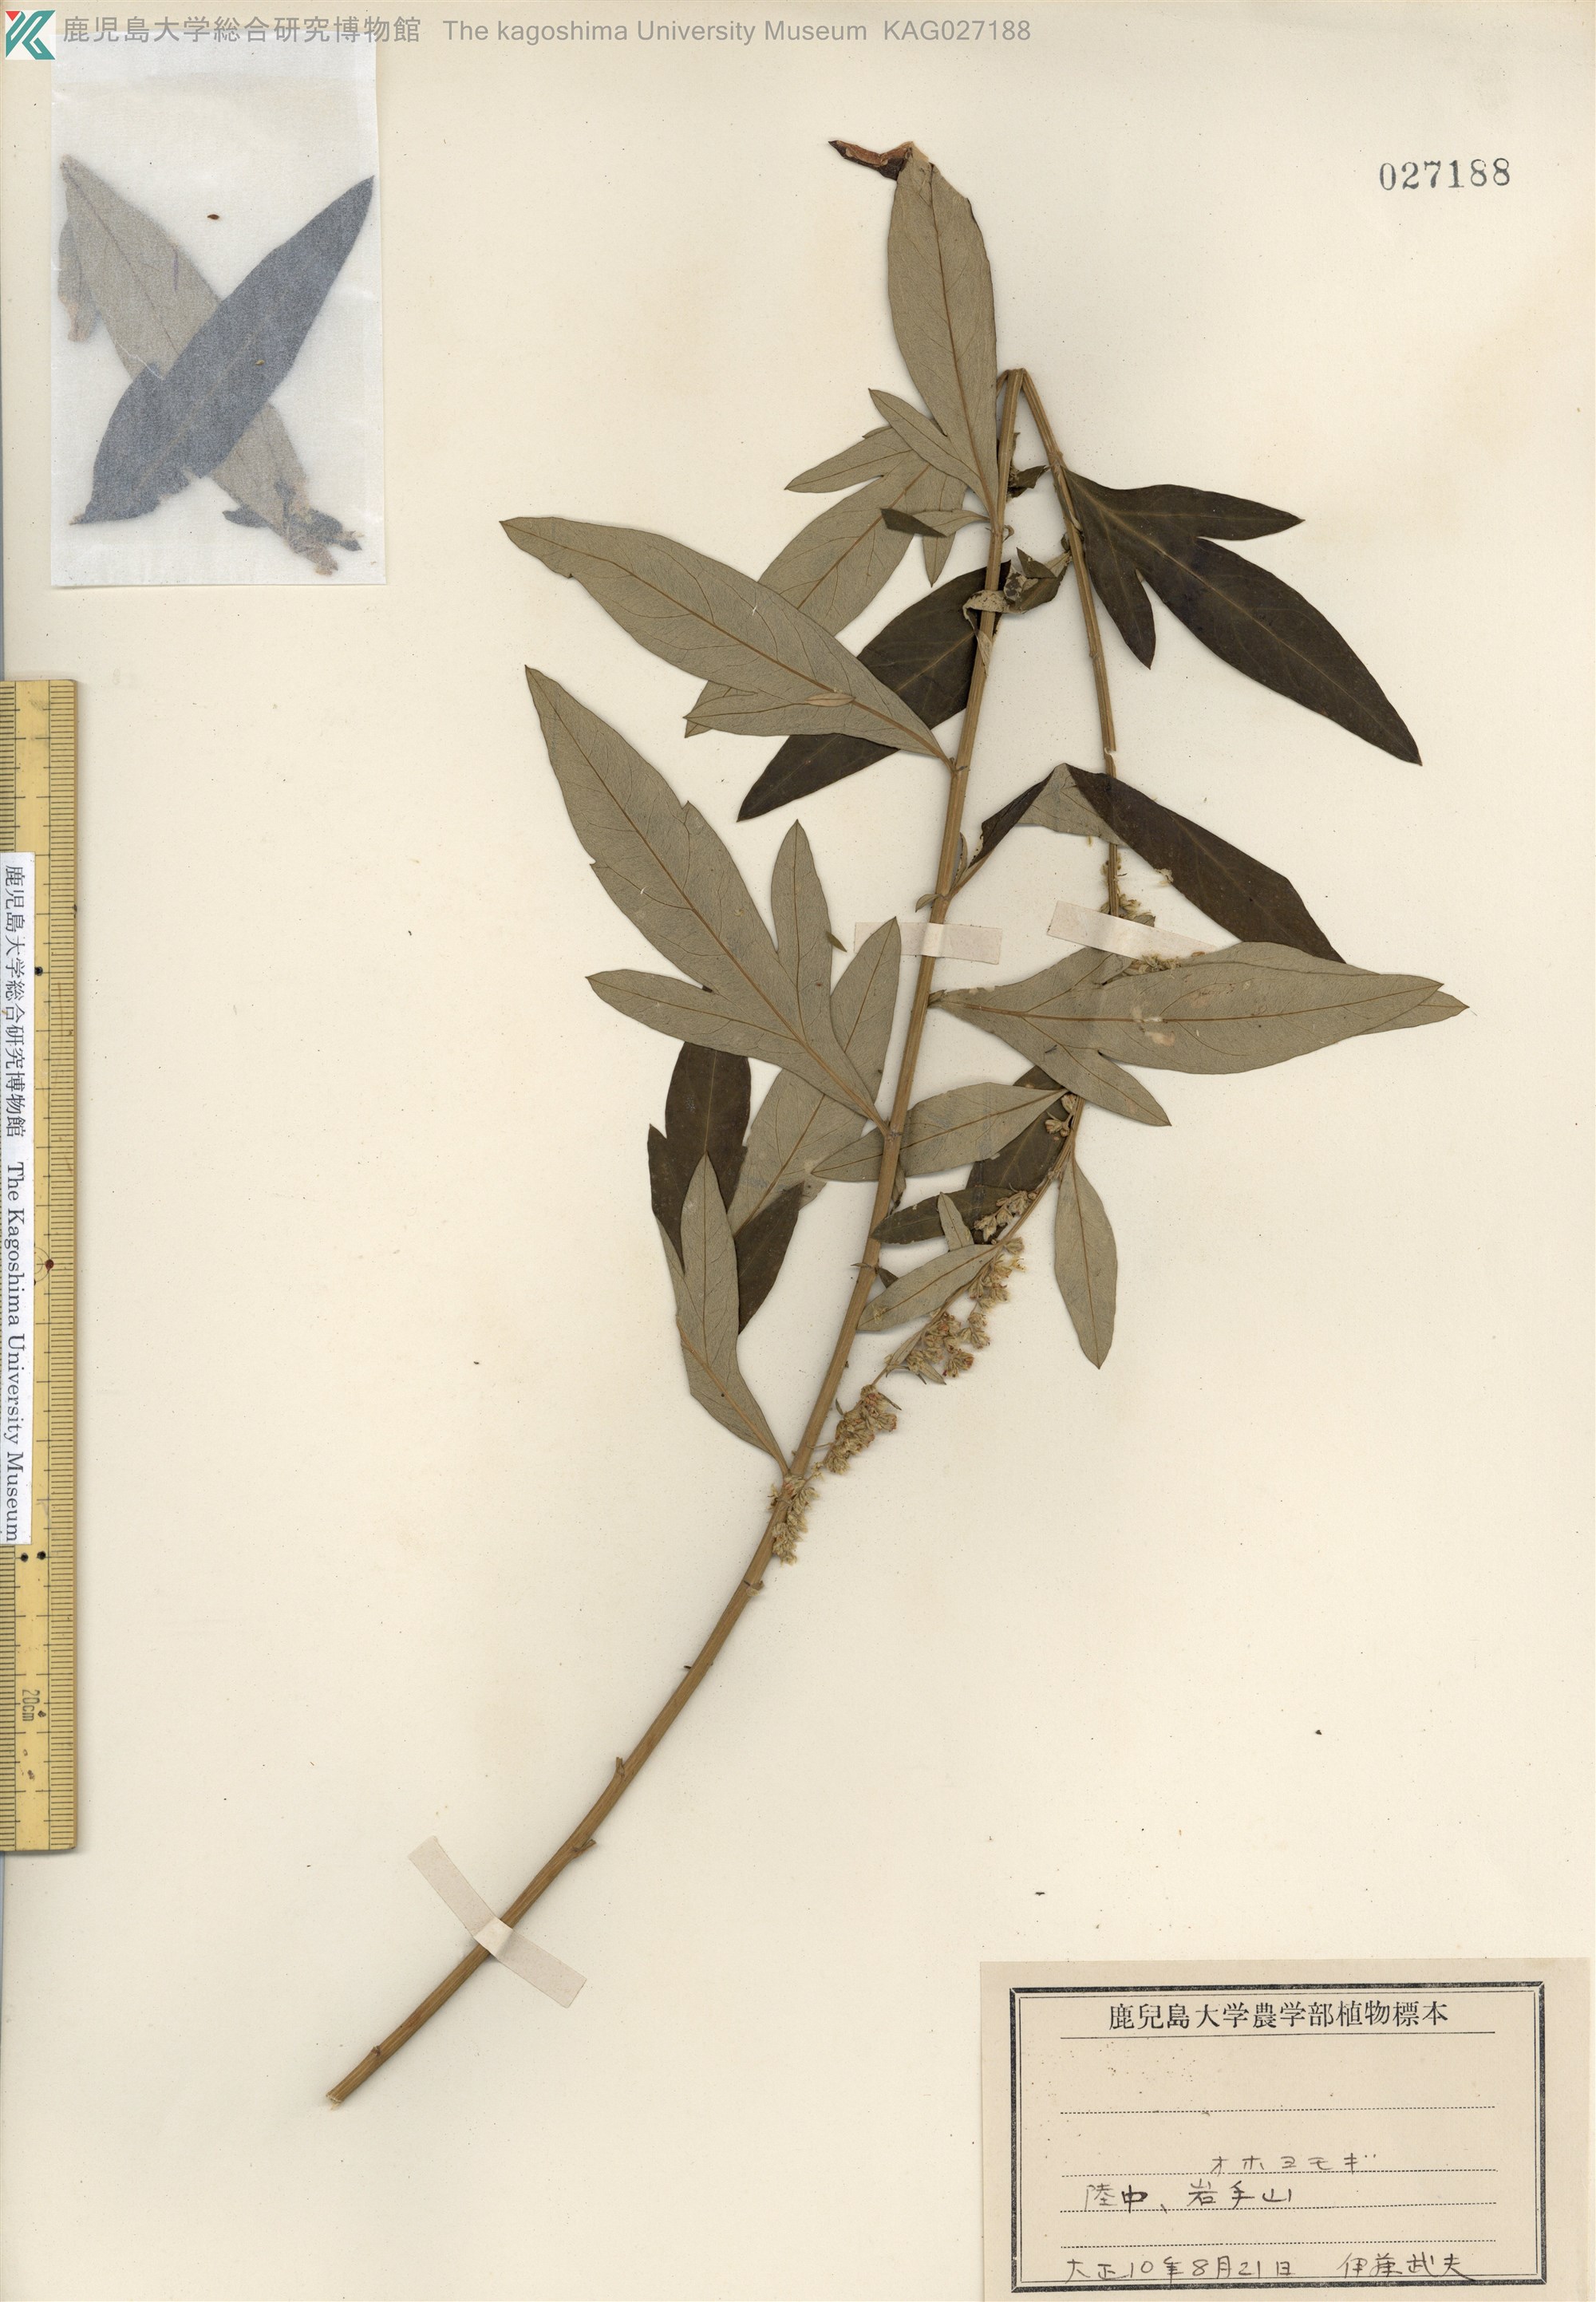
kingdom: Plantae
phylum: Tracheophyta
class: Magnoliopsida
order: Asterales
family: Asteraceae
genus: Artemisia
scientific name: Artemisia koidzumii
